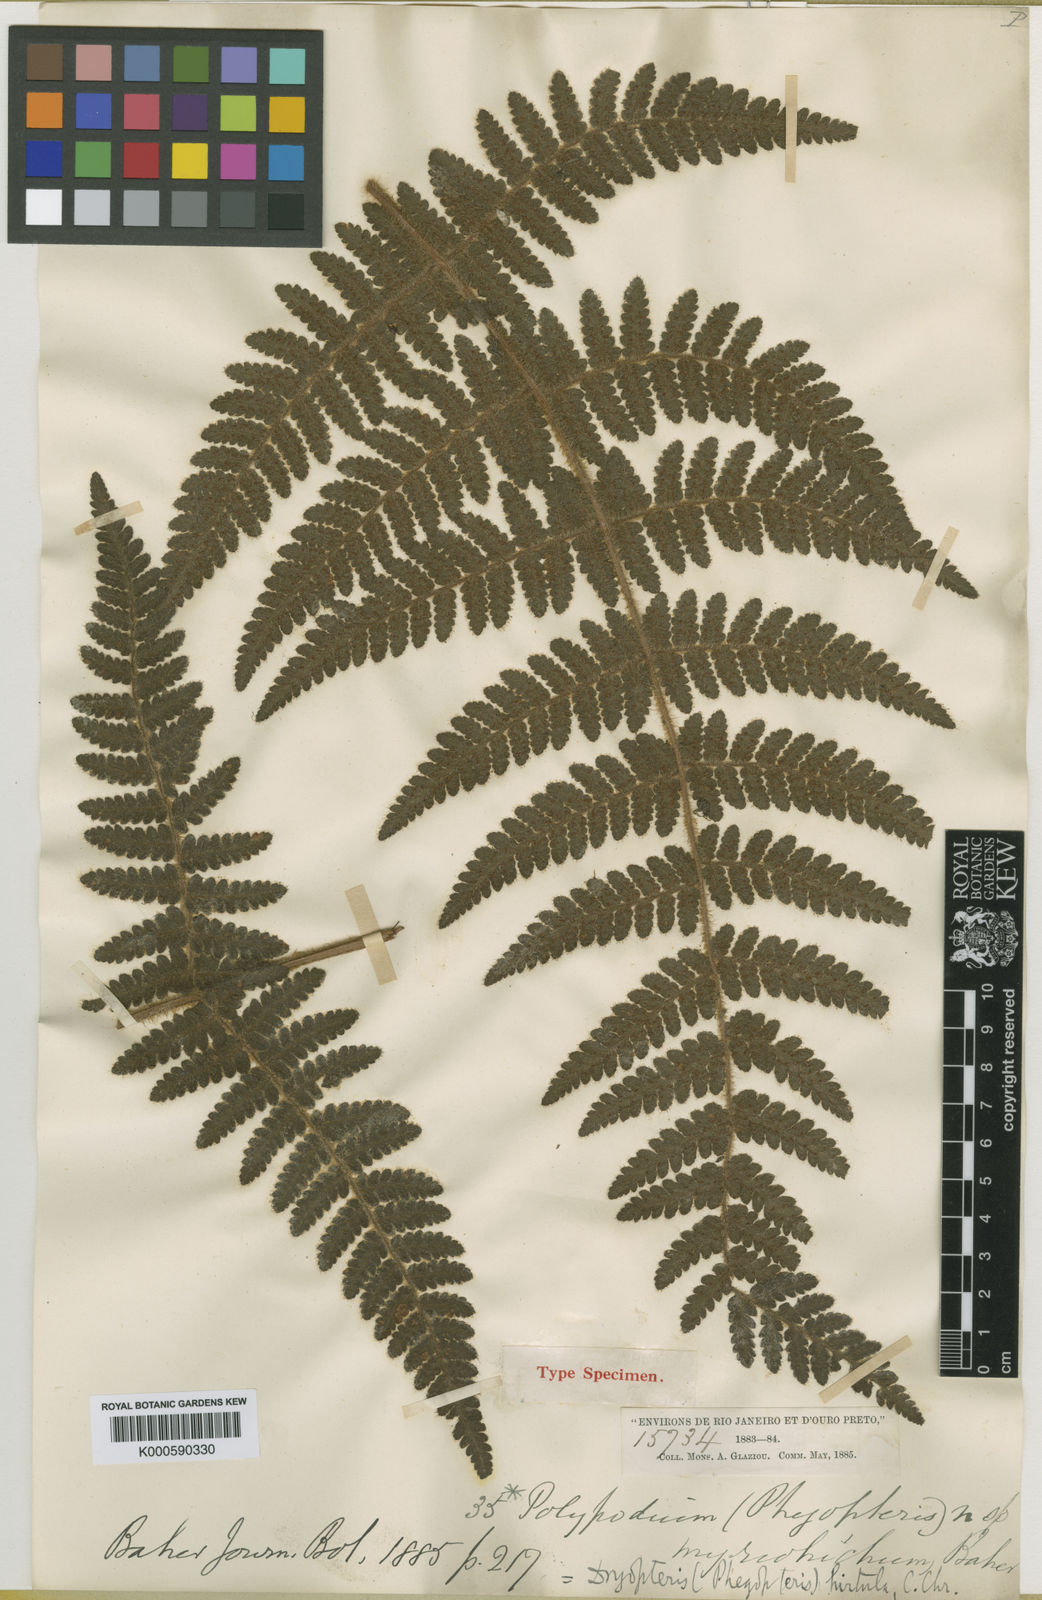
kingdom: Plantae
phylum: Tracheophyta
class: Polypodiopsida
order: Cyatheales
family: Cyatheaceae
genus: Cyathea
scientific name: Cyathea myriotricha
